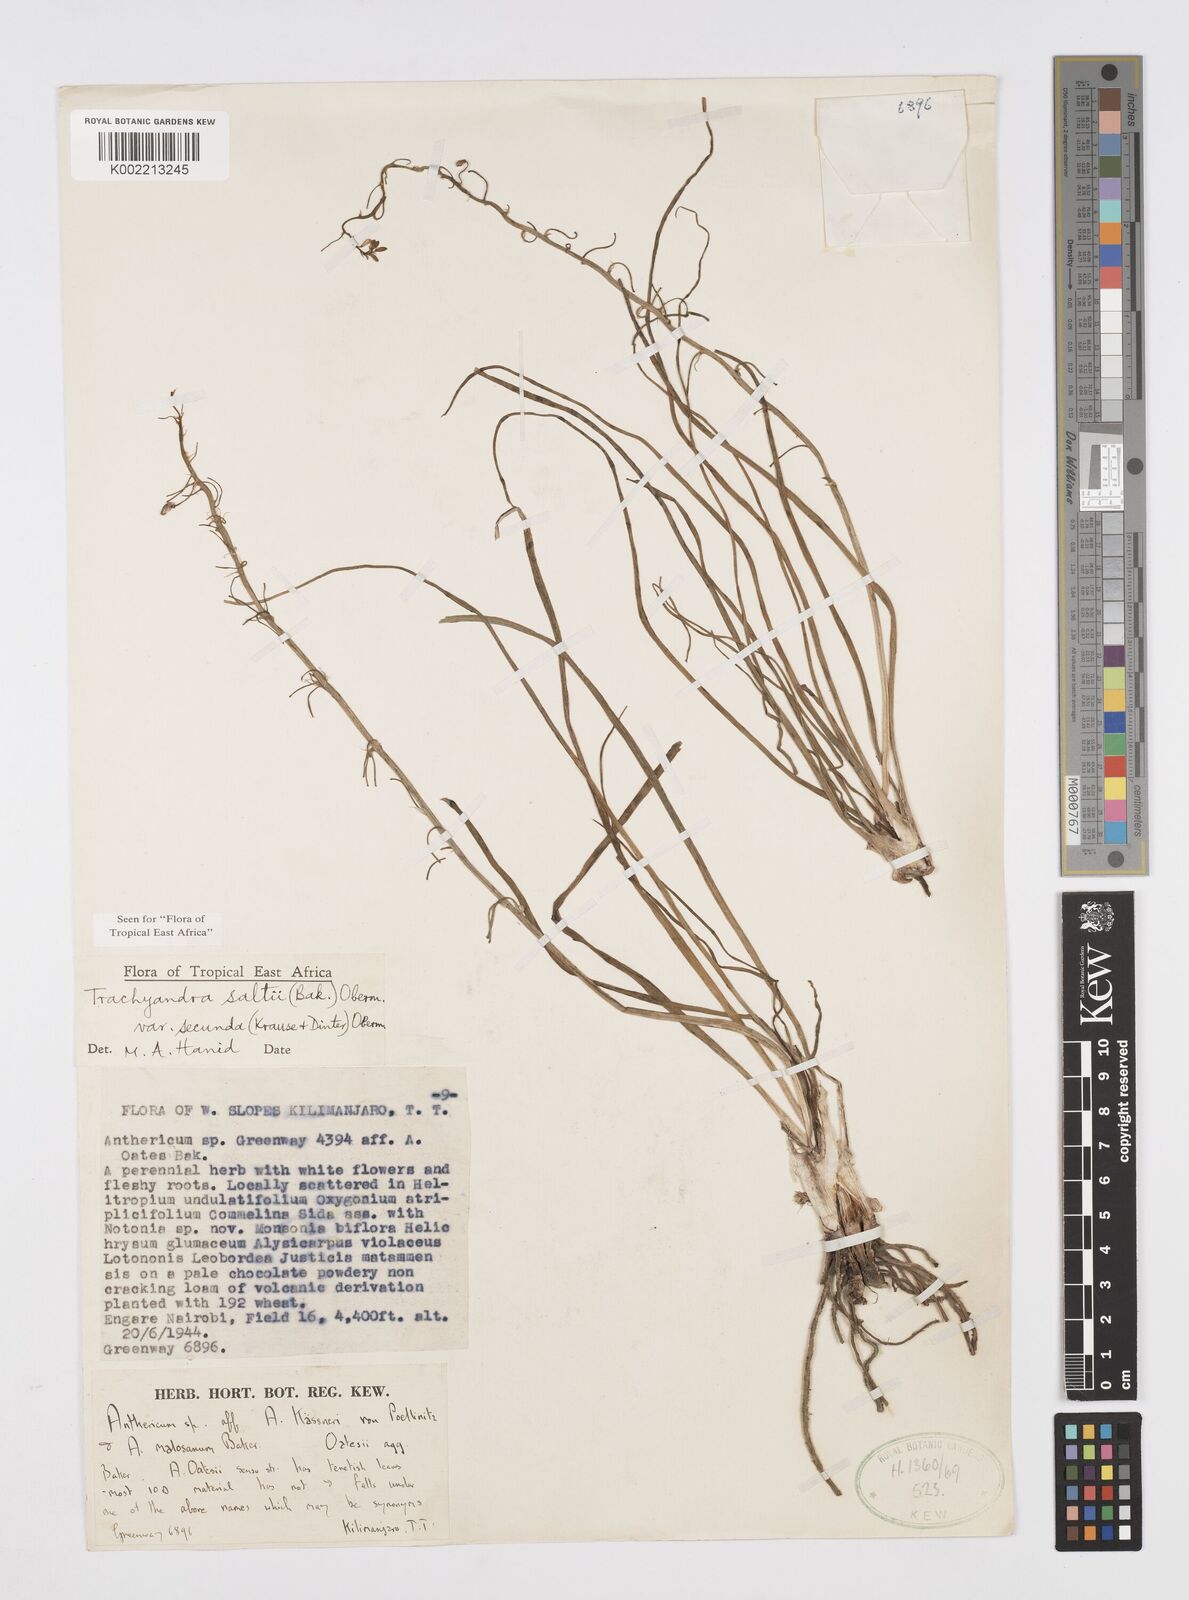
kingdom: Plantae
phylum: Tracheophyta
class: Liliopsida
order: Asparagales
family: Asphodelaceae
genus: Trachyandra
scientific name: Trachyandra saltii
